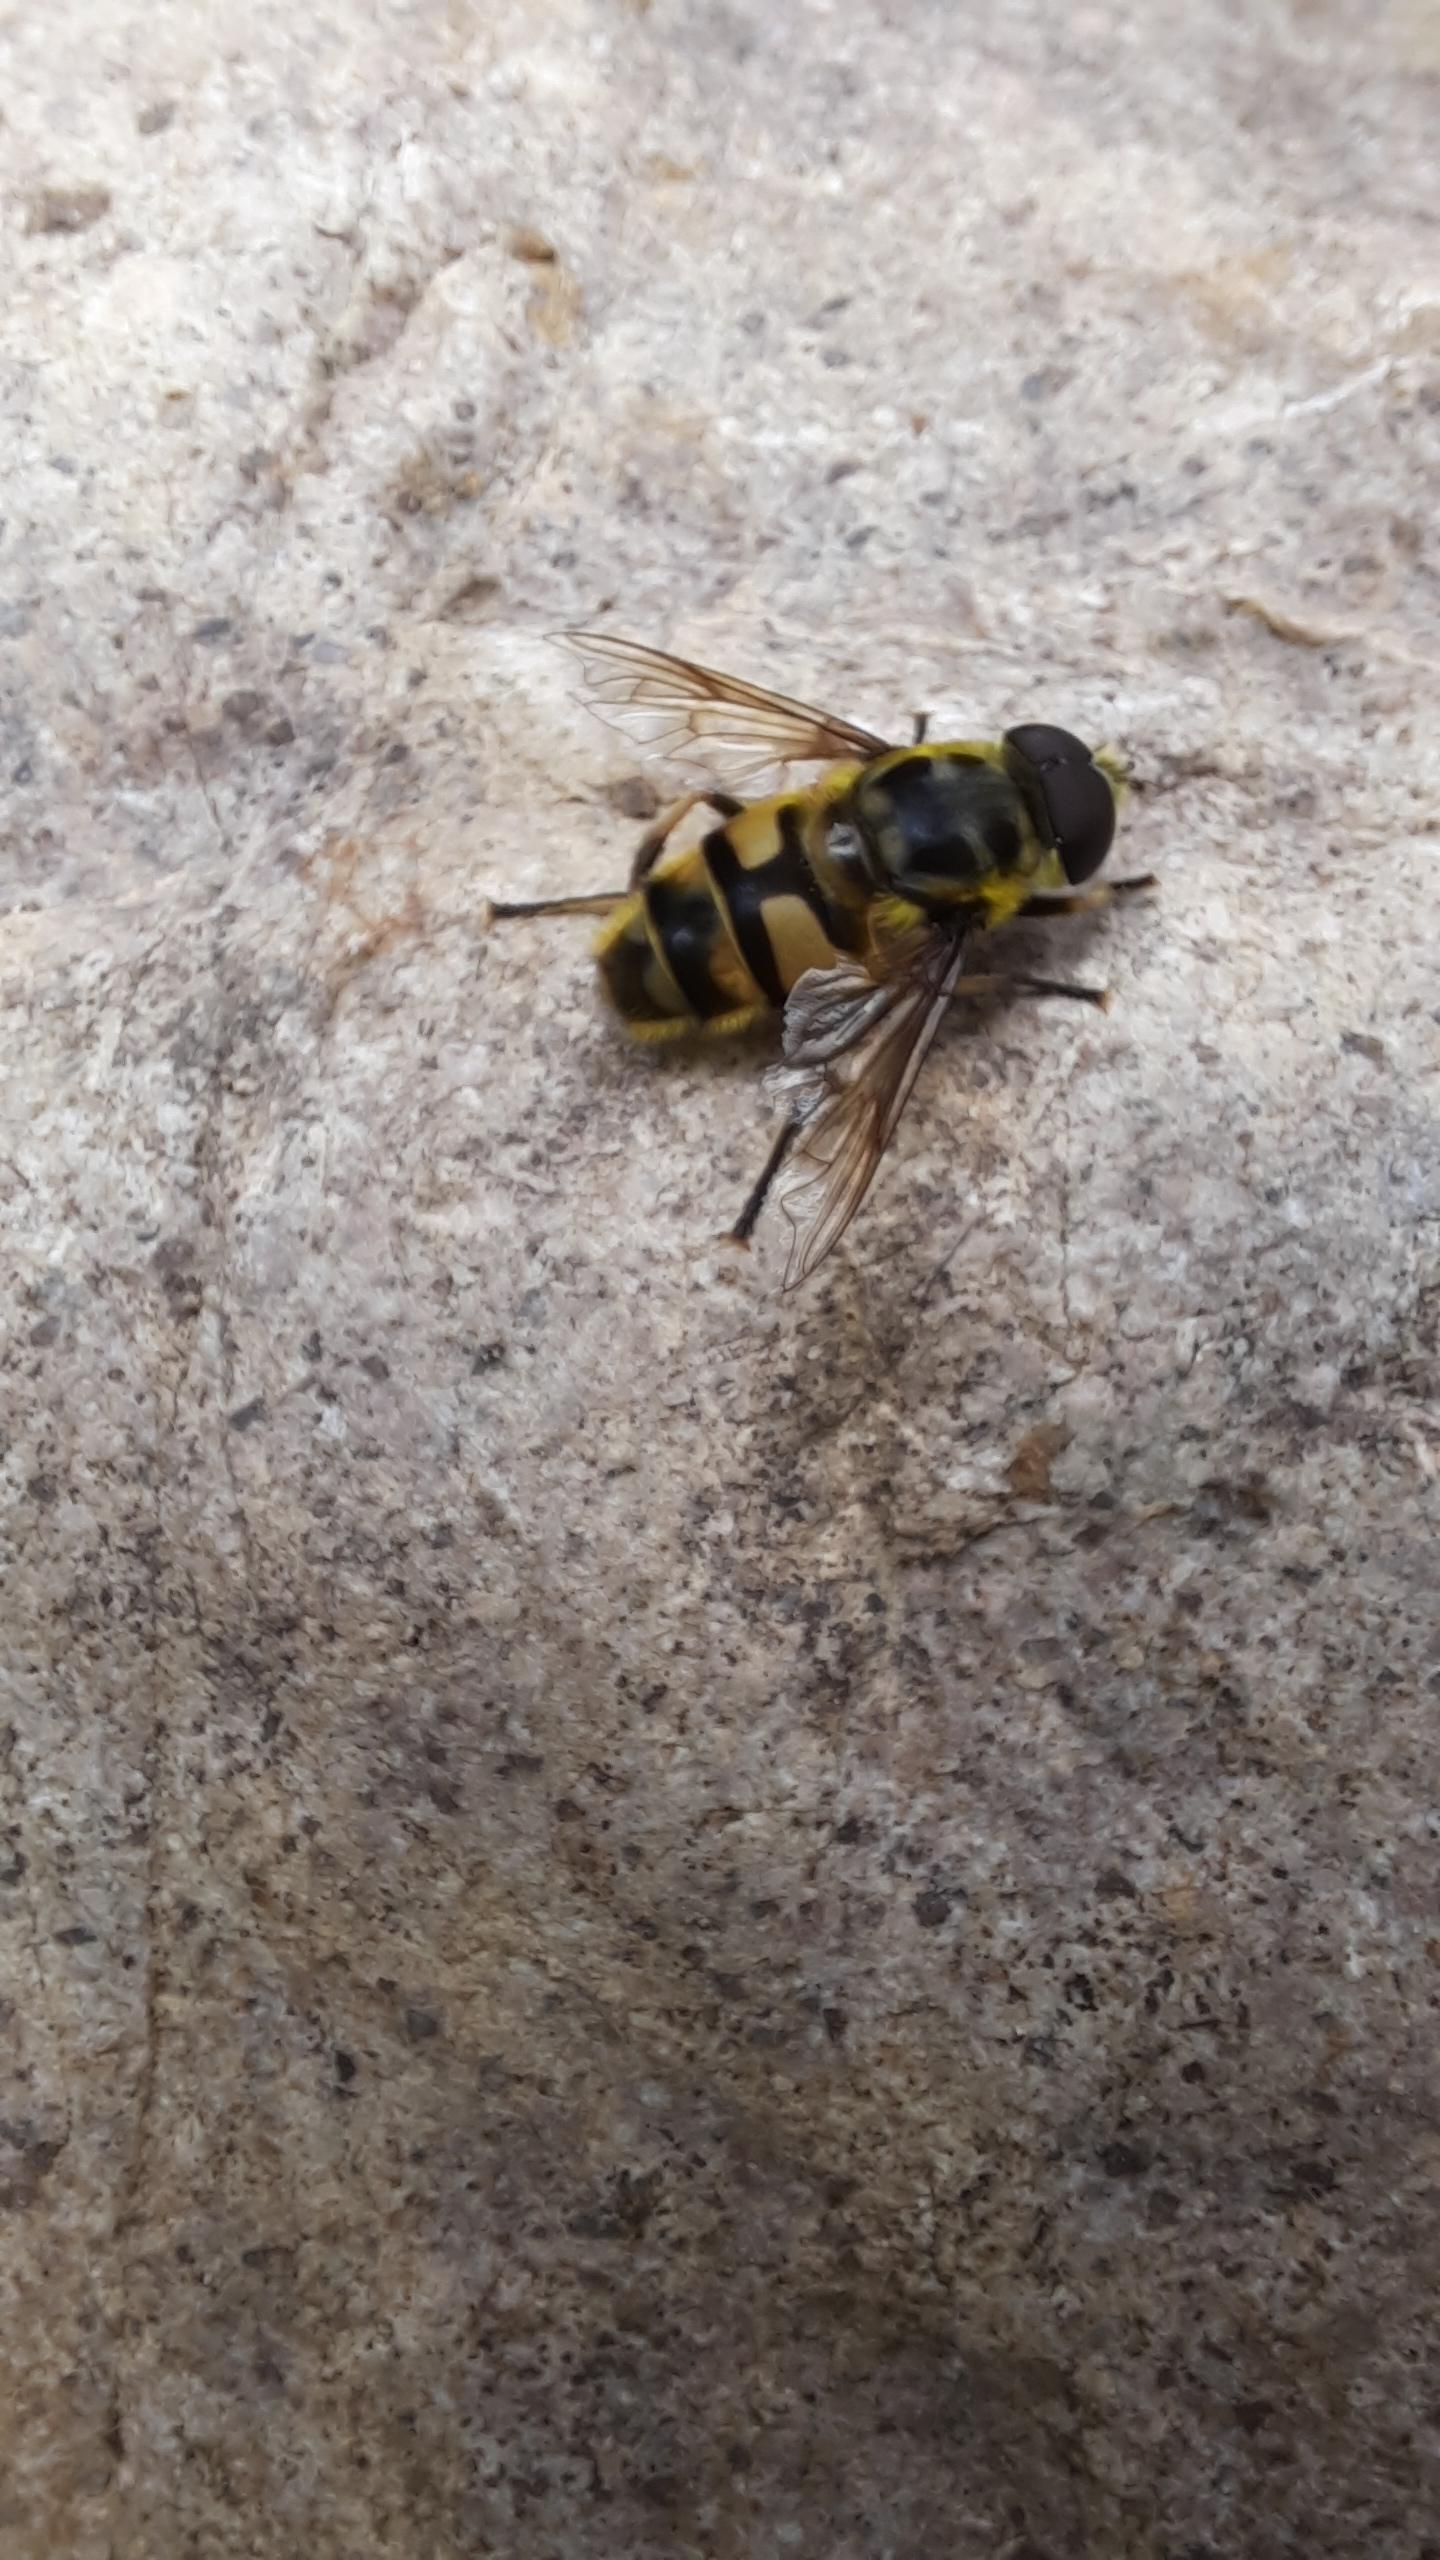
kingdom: Animalia
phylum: Arthropoda
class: Insecta
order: Diptera
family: Syrphidae
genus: Myathropa
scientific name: Myathropa florea
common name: Dødningehoved-svirreflue
